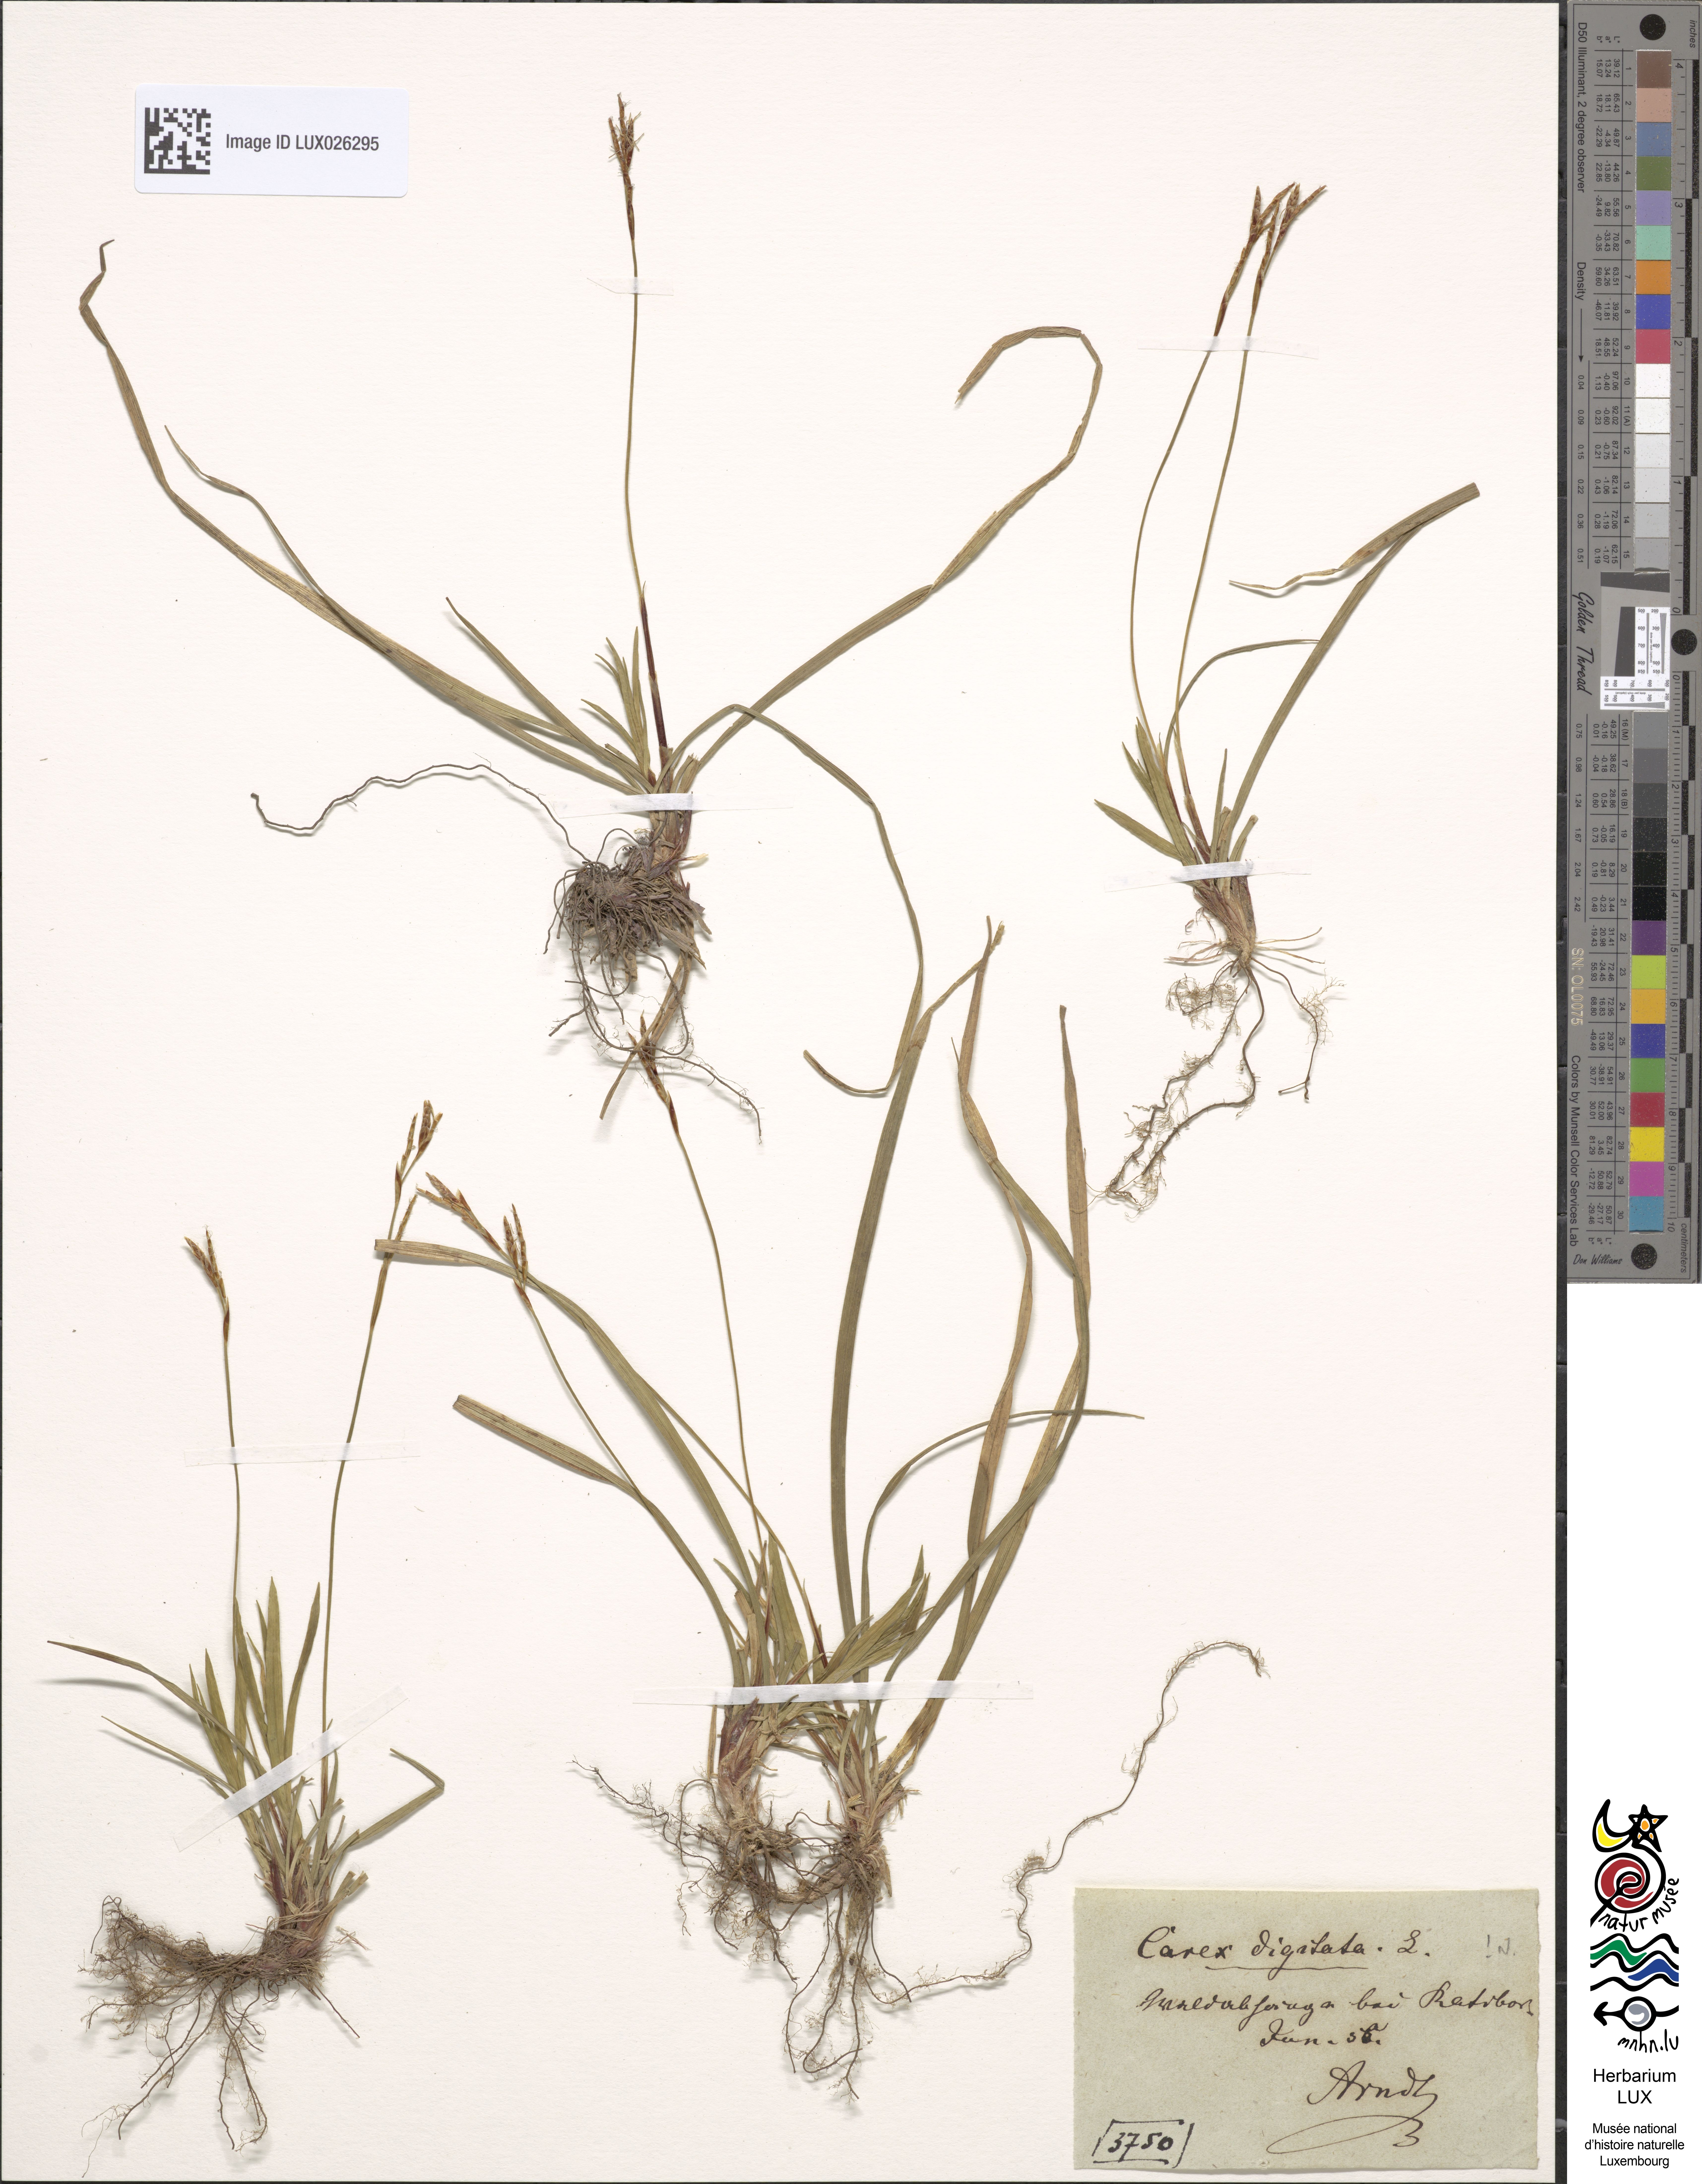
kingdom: Plantae
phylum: Tracheophyta
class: Liliopsida
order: Poales
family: Cyperaceae
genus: Carex
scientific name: Carex digitata
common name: Fingered sedge
